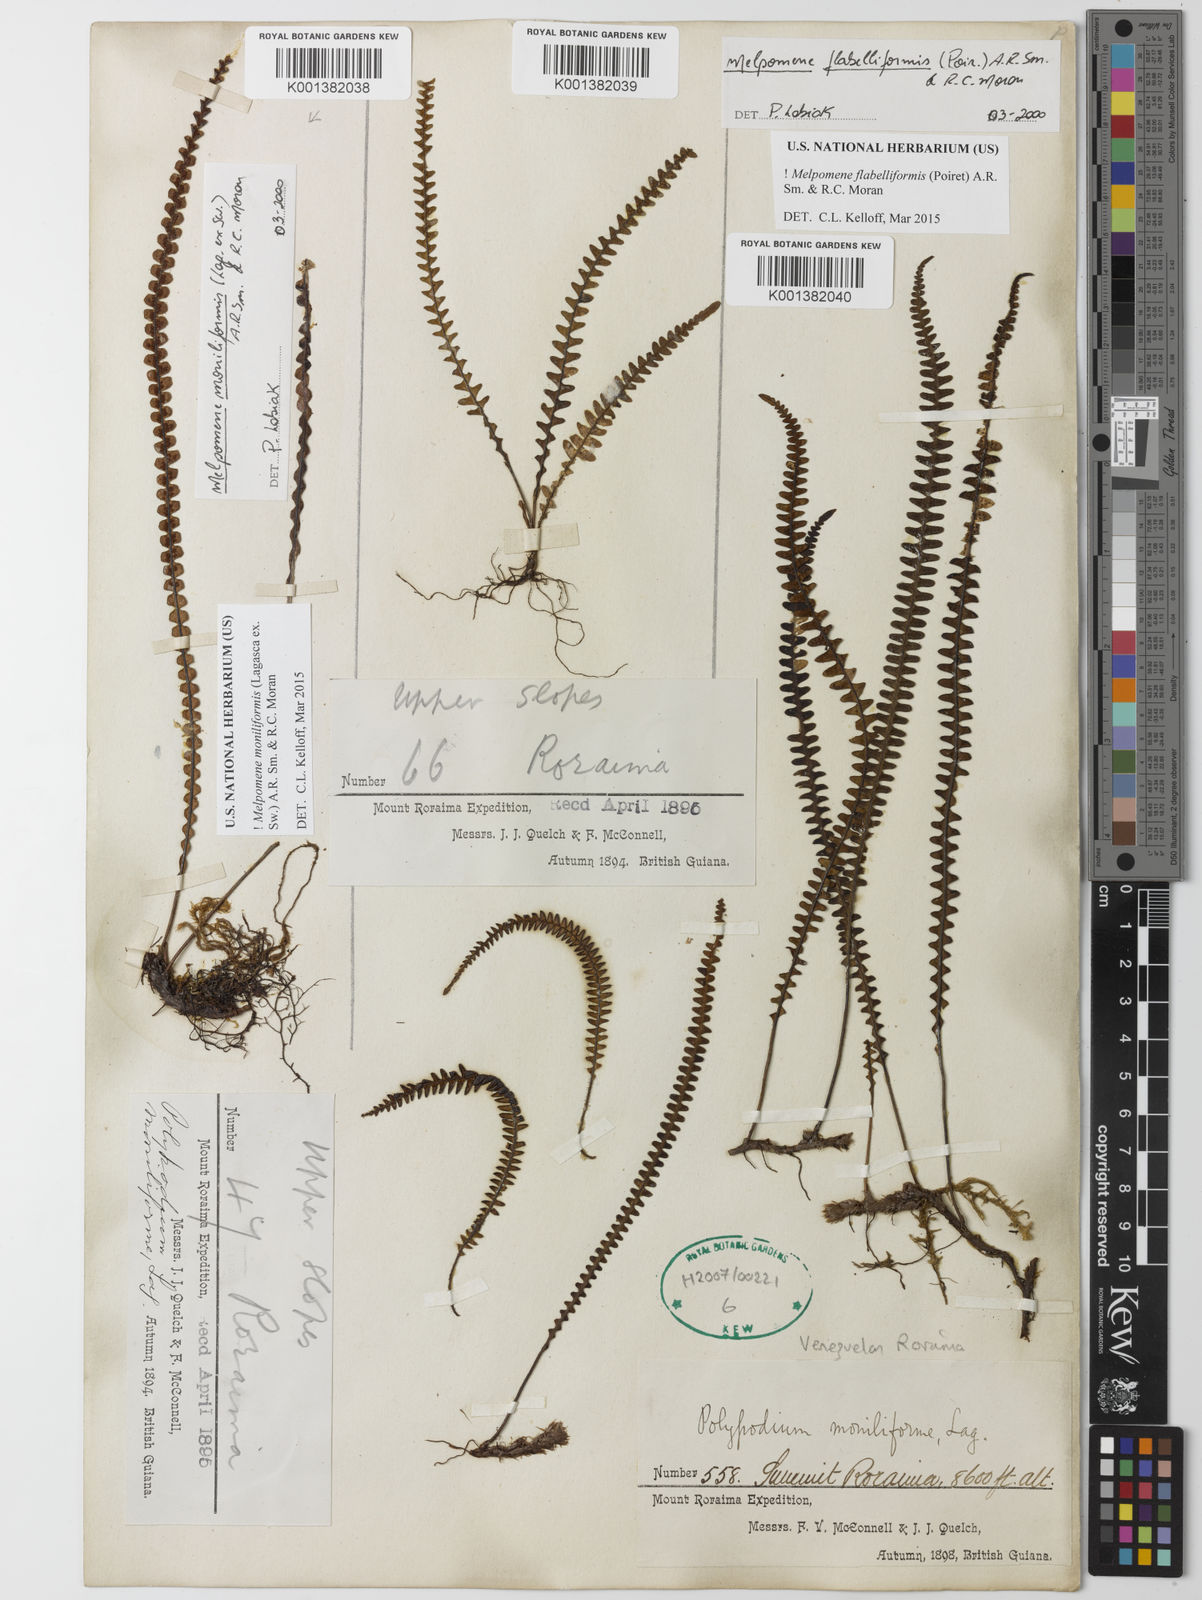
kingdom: Plantae
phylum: Tracheophyta
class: Polypodiopsida
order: Polypodiales
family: Polypodiaceae
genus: Melpomene
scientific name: Melpomene flabelliformis
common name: Fanleaf dwarf polypody
